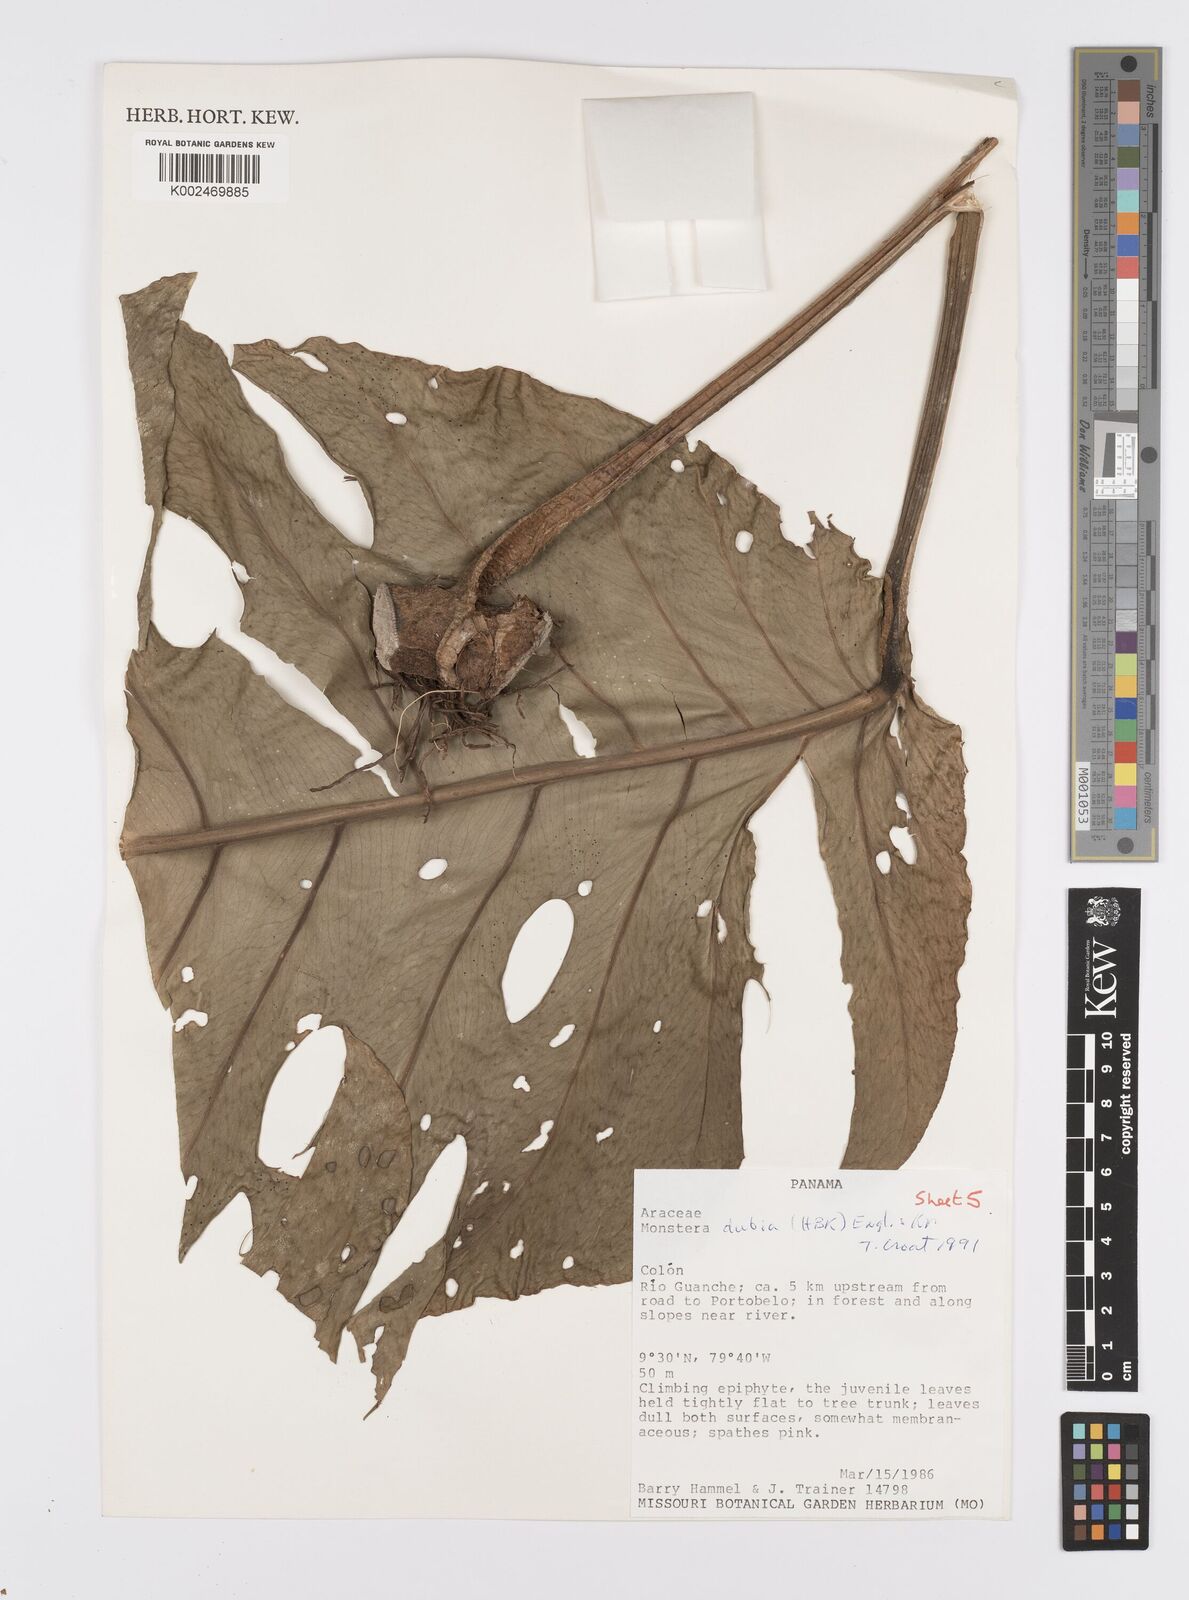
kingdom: Plantae
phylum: Tracheophyta
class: Liliopsida
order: Alismatales
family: Araceae
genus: Monstera
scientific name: Monstera dubia
